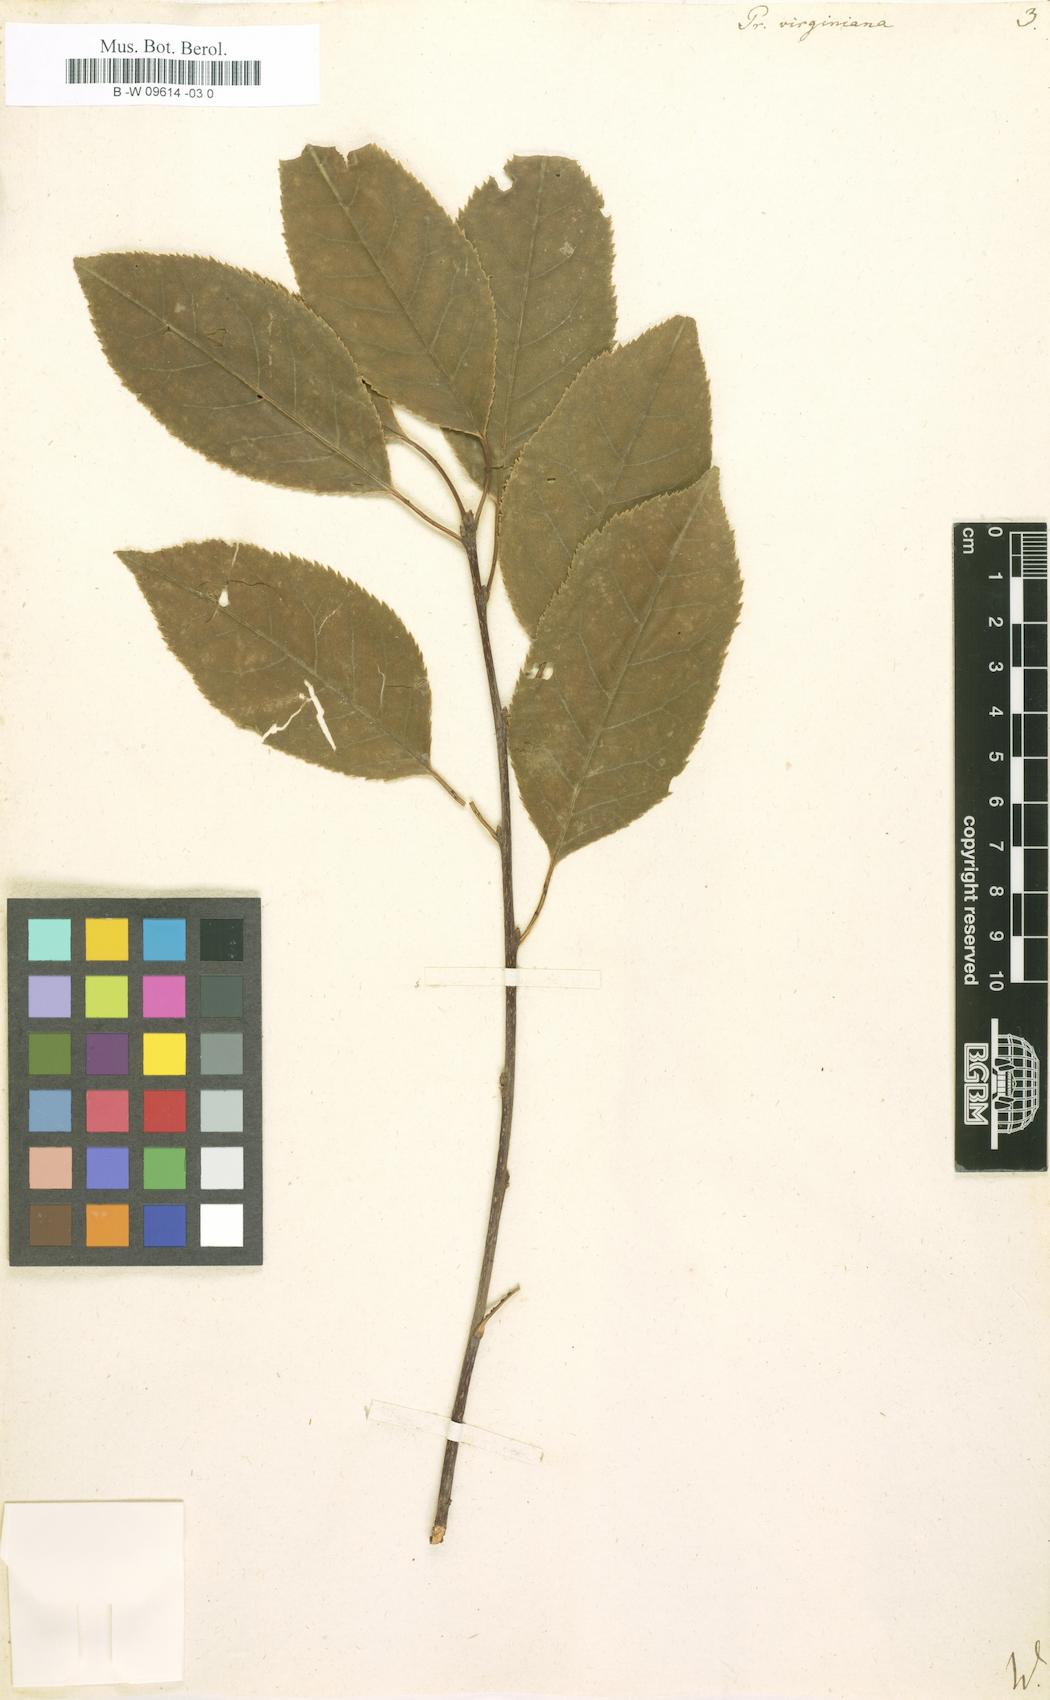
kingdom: Plantae
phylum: Tracheophyta
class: Magnoliopsida
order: Rosales
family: Rosaceae
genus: Prunus
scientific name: Prunus virginiana
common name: Chokecherry
